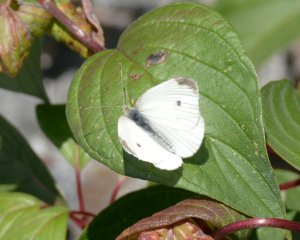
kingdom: Animalia
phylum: Arthropoda
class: Insecta
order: Lepidoptera
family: Pieridae
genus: Pieris
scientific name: Pieris rapae
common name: Cabbage White
